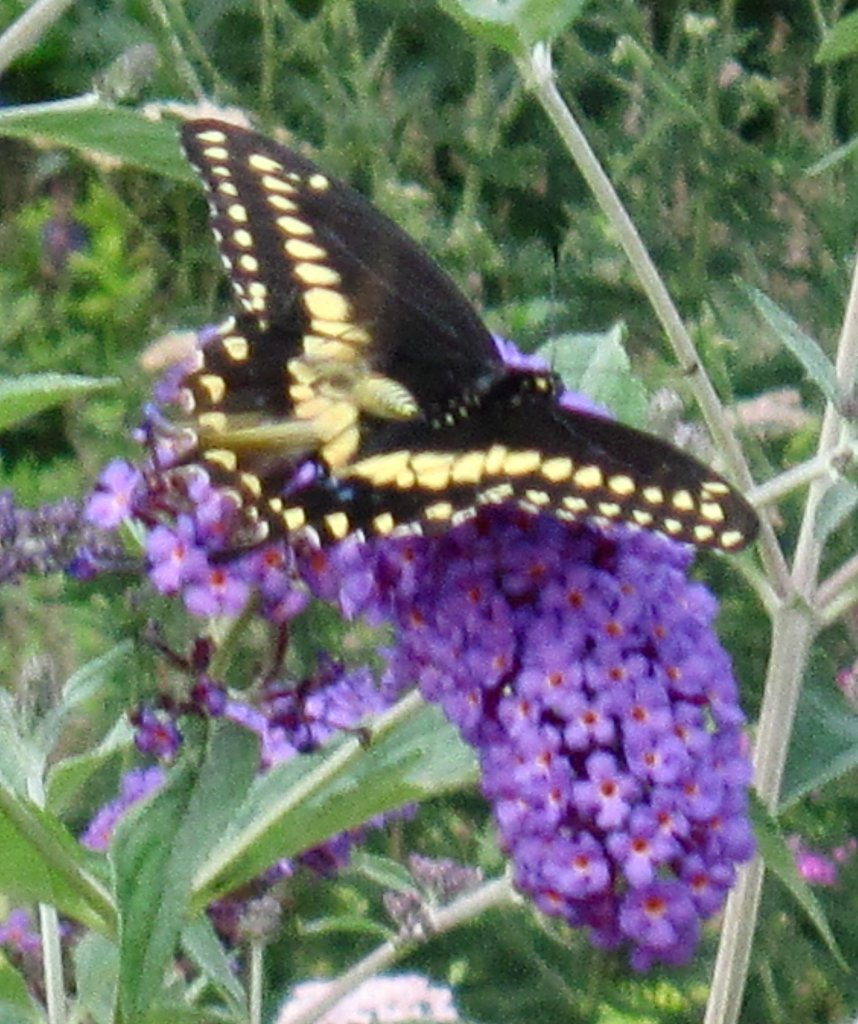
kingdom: Animalia
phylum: Arthropoda
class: Insecta
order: Lepidoptera
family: Papilionidae
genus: Papilio
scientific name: Papilio polyxenes
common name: Black Swallowtail
